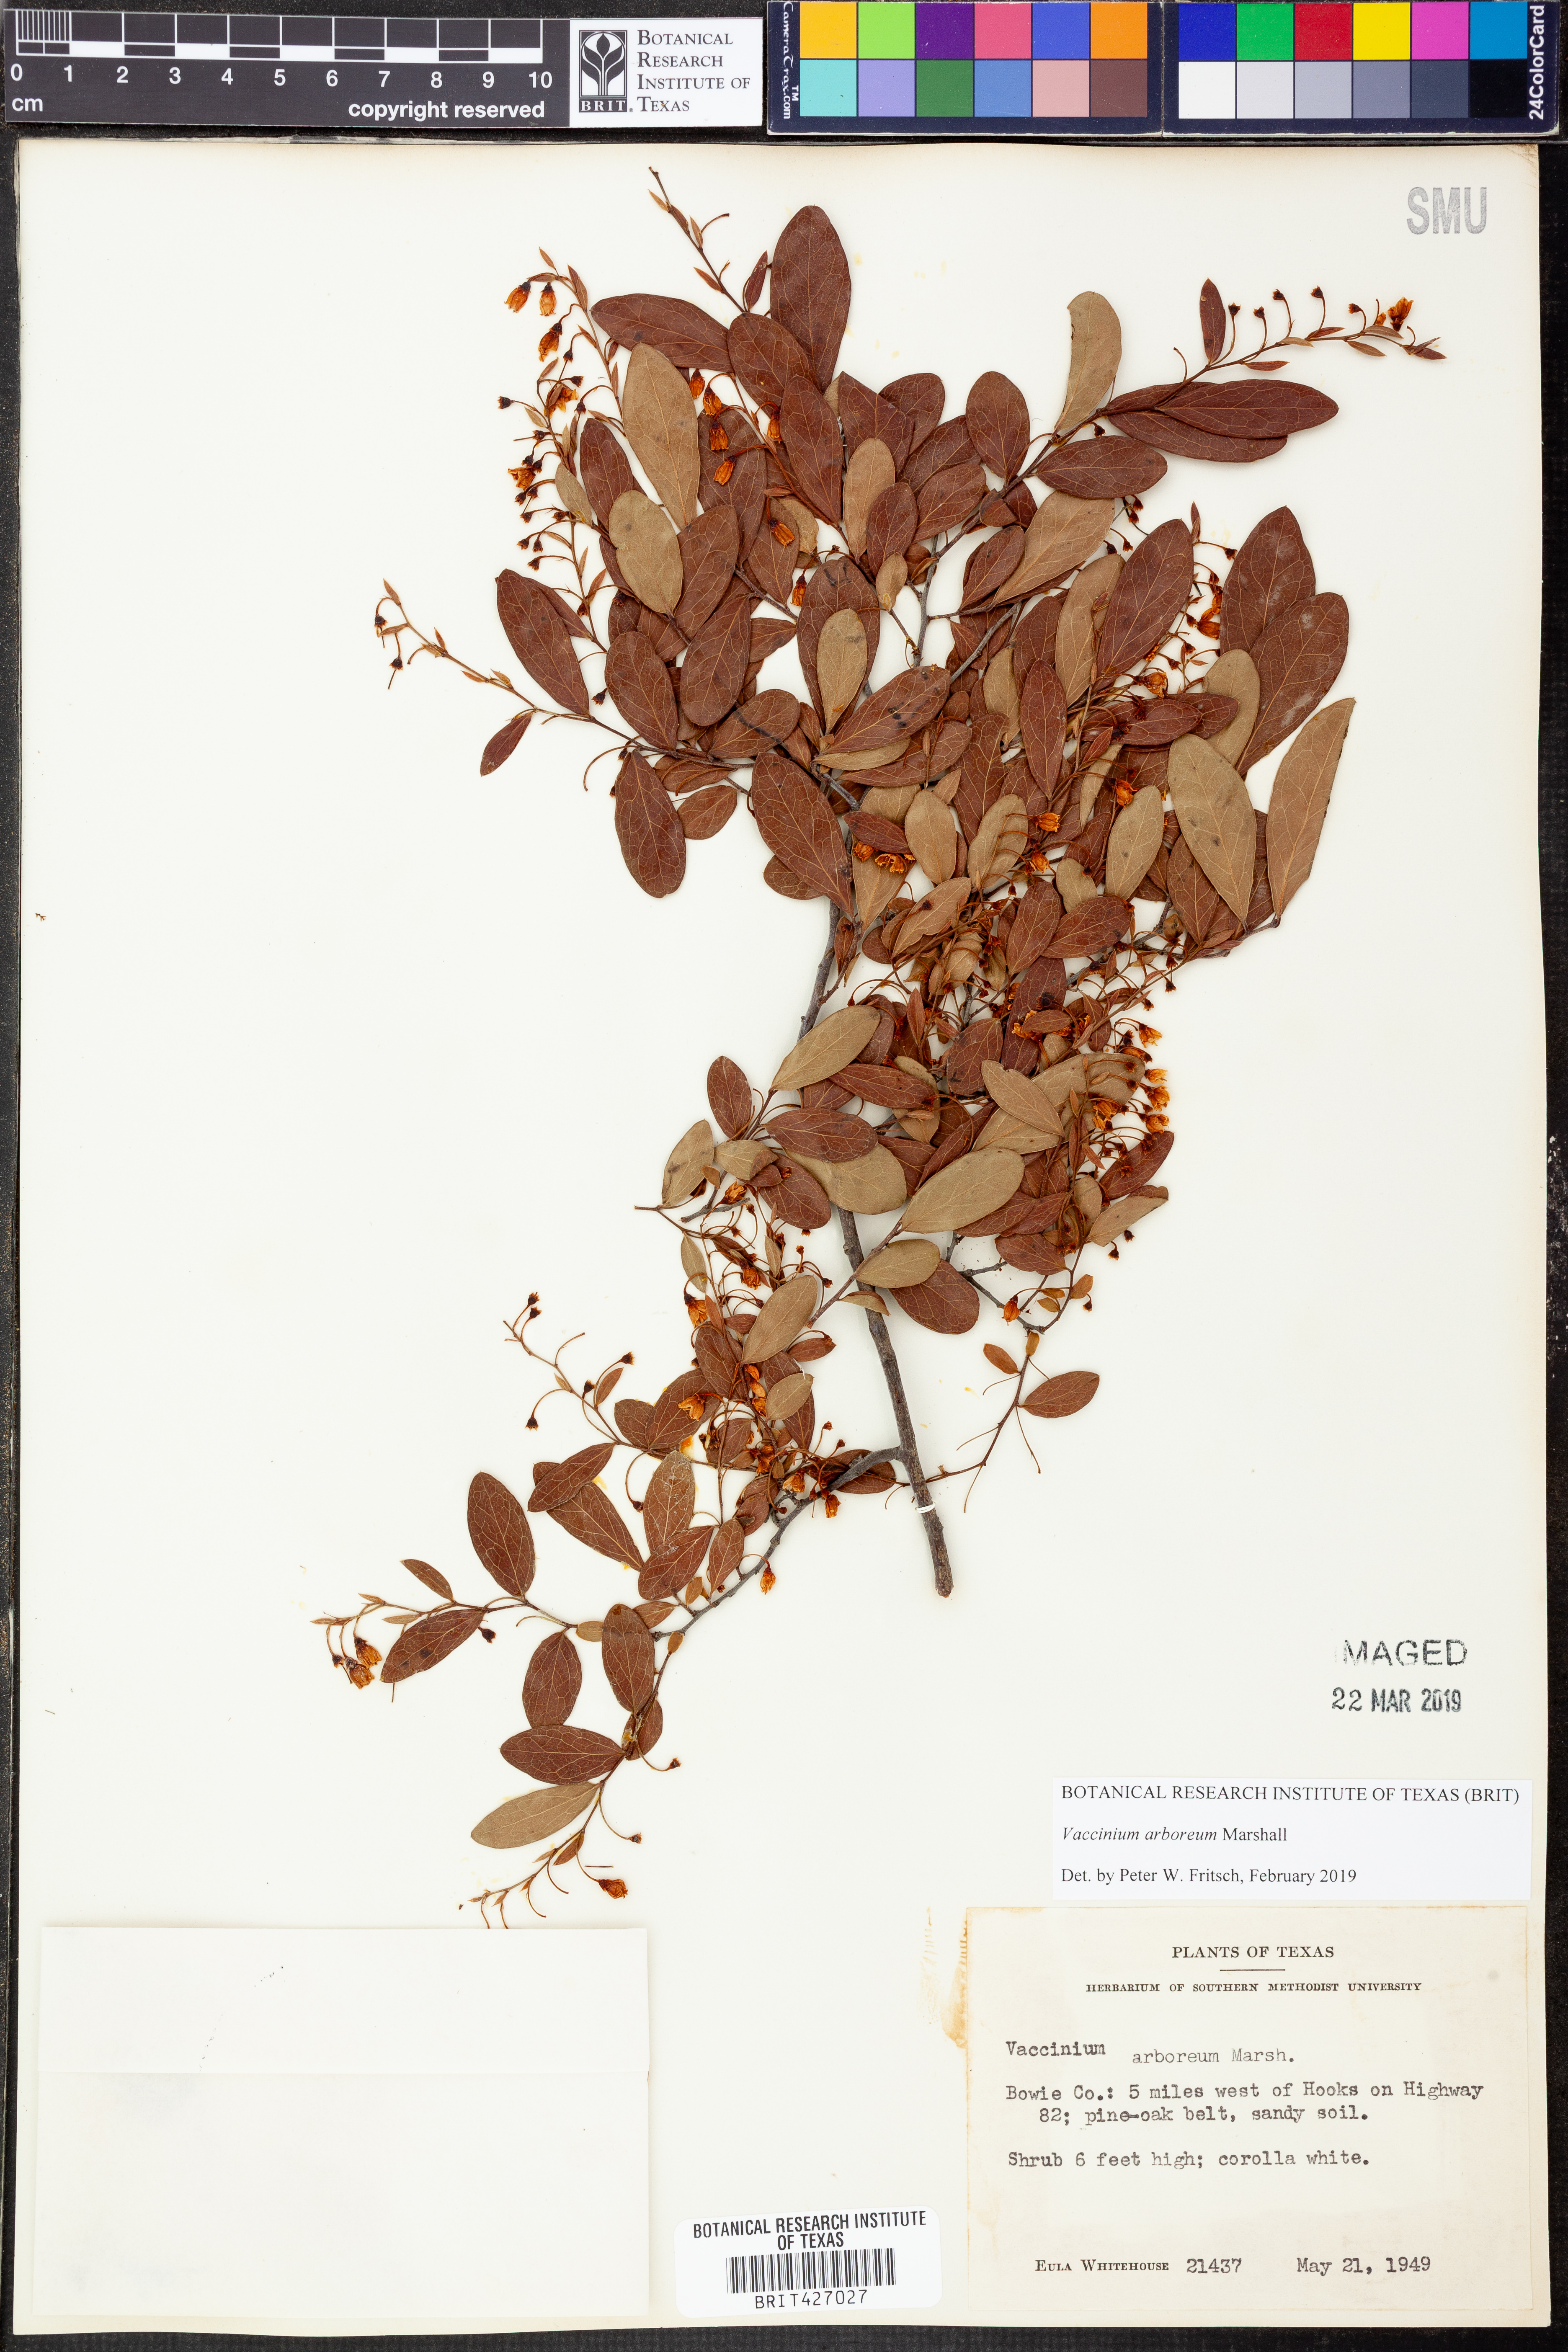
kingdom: Plantae
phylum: Tracheophyta
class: Magnoliopsida
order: Ericales
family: Ericaceae
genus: Vaccinium
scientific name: Vaccinium arboreum
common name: Farkleberry
